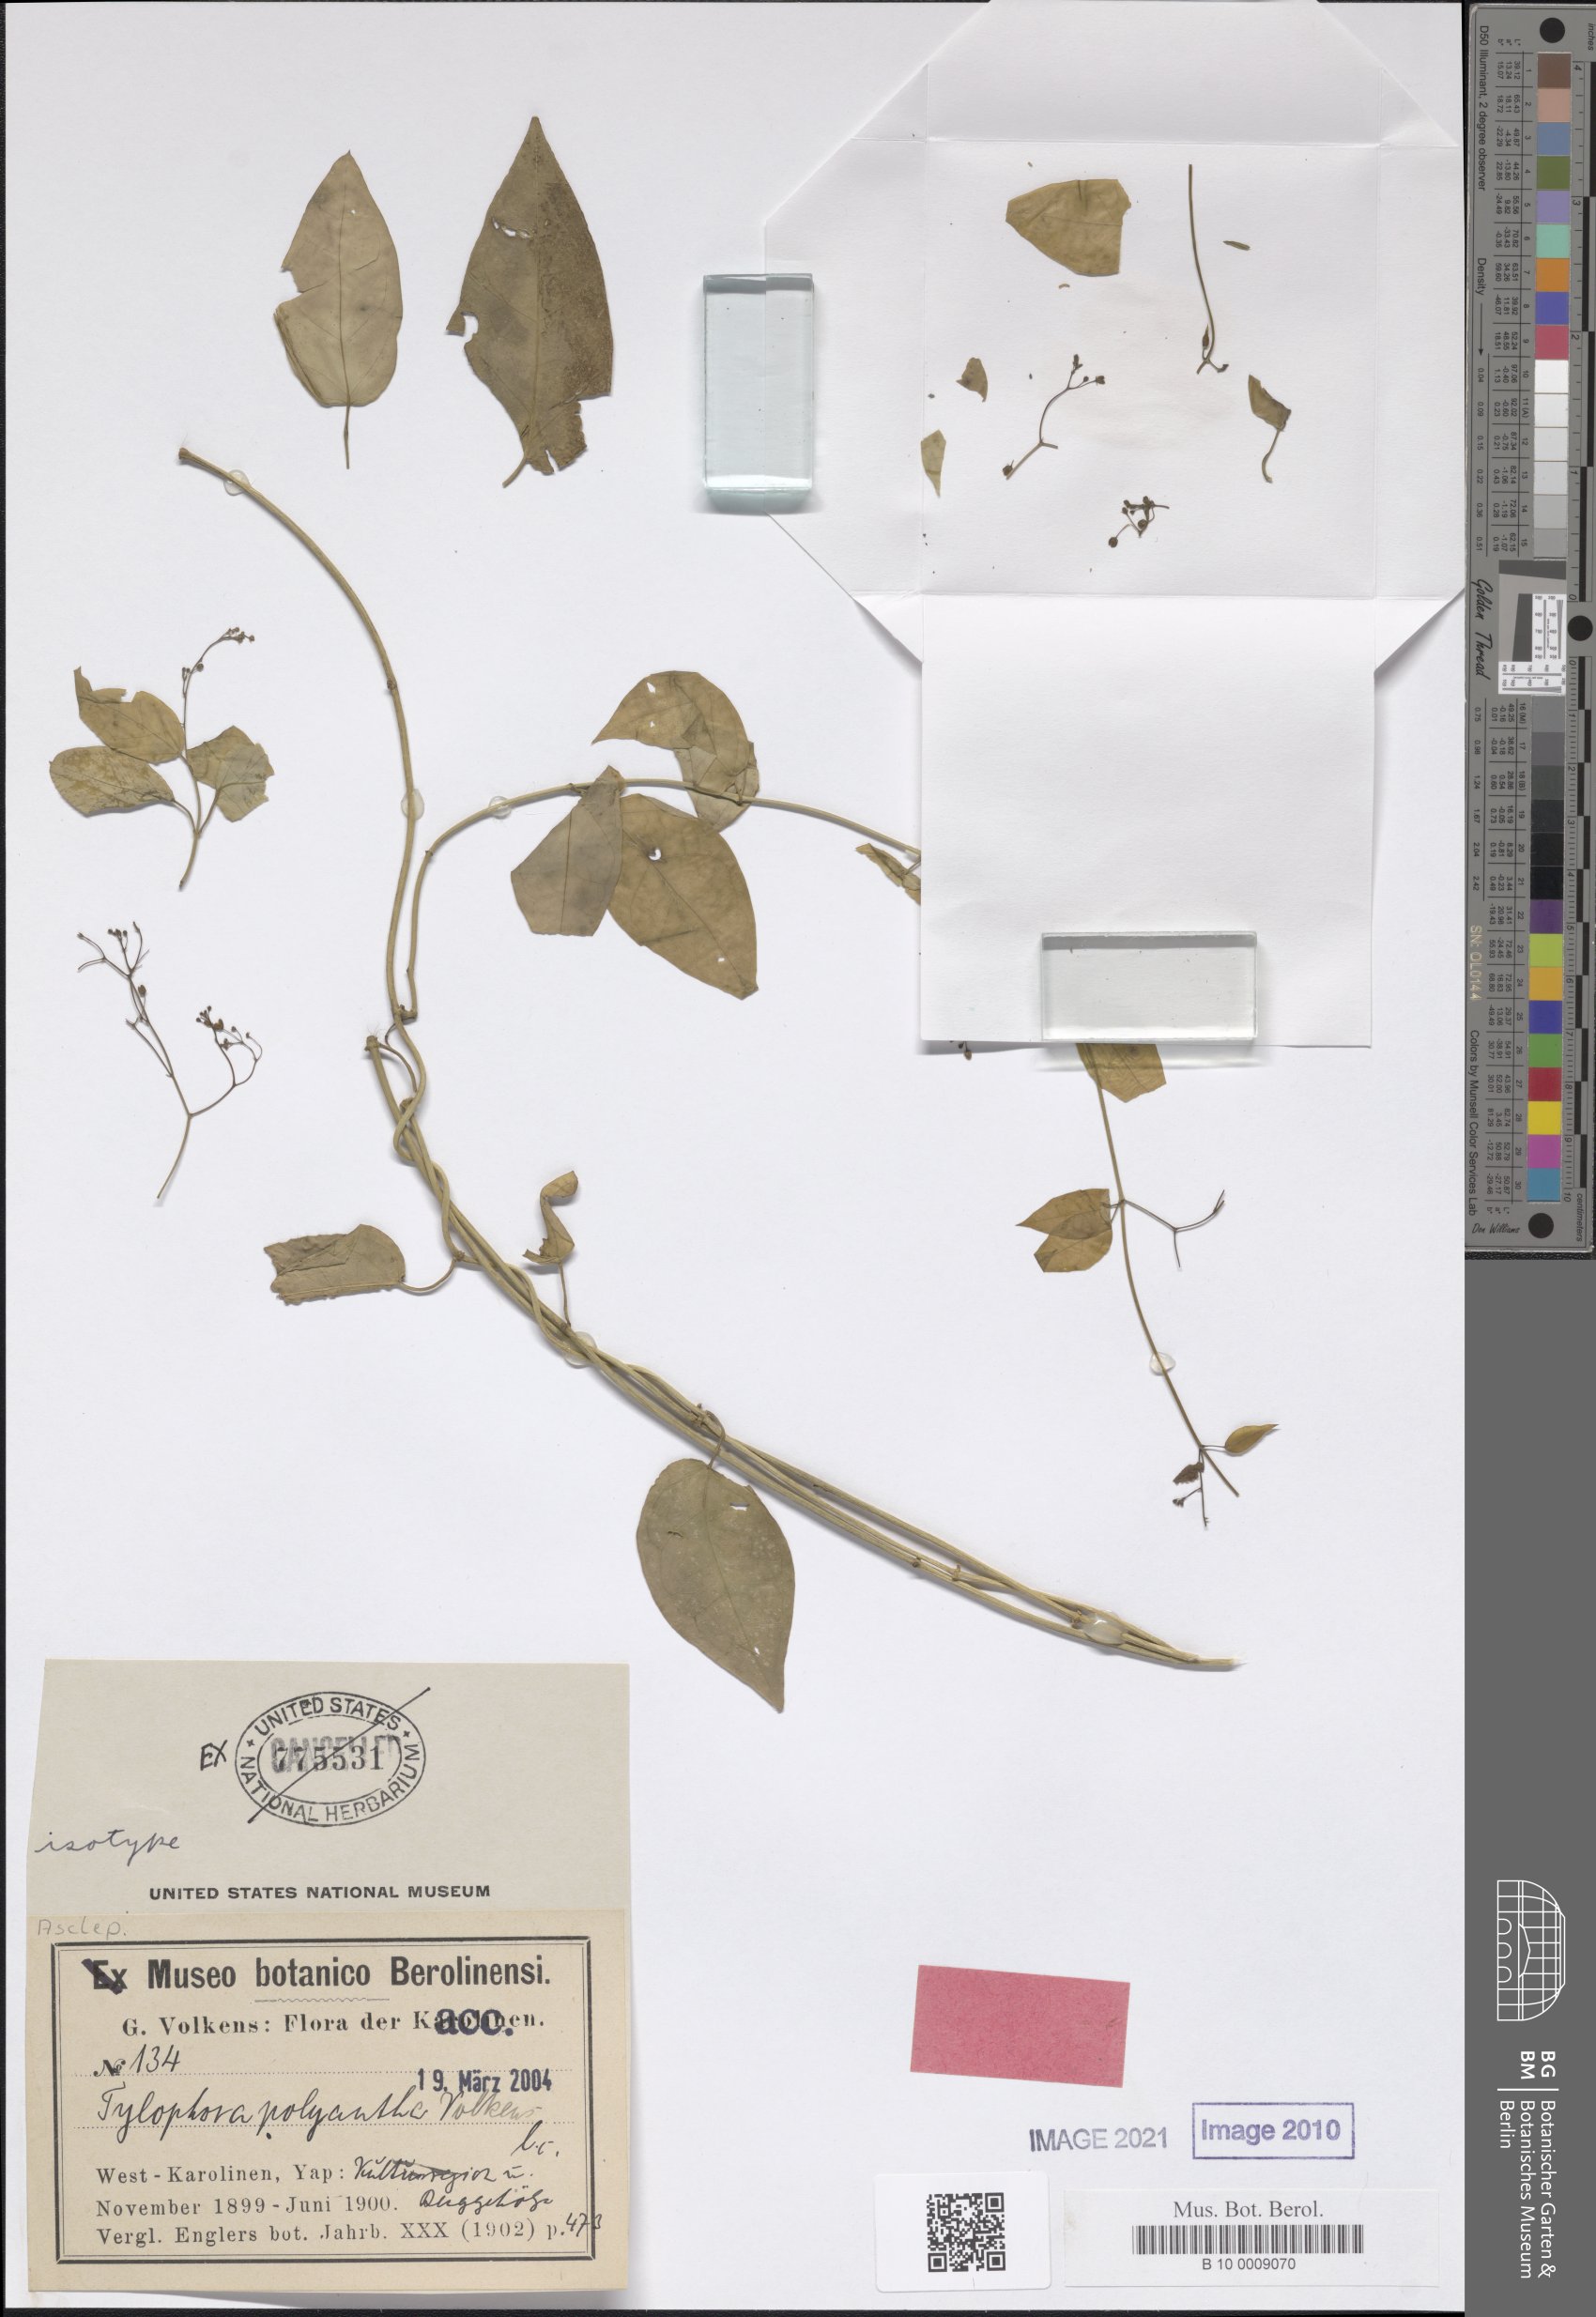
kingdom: Plantae
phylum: Tracheophyta
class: Magnoliopsida
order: Gentianales
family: Apocynaceae
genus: Vincetoxicum
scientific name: Vincetoxicum flexuosum
